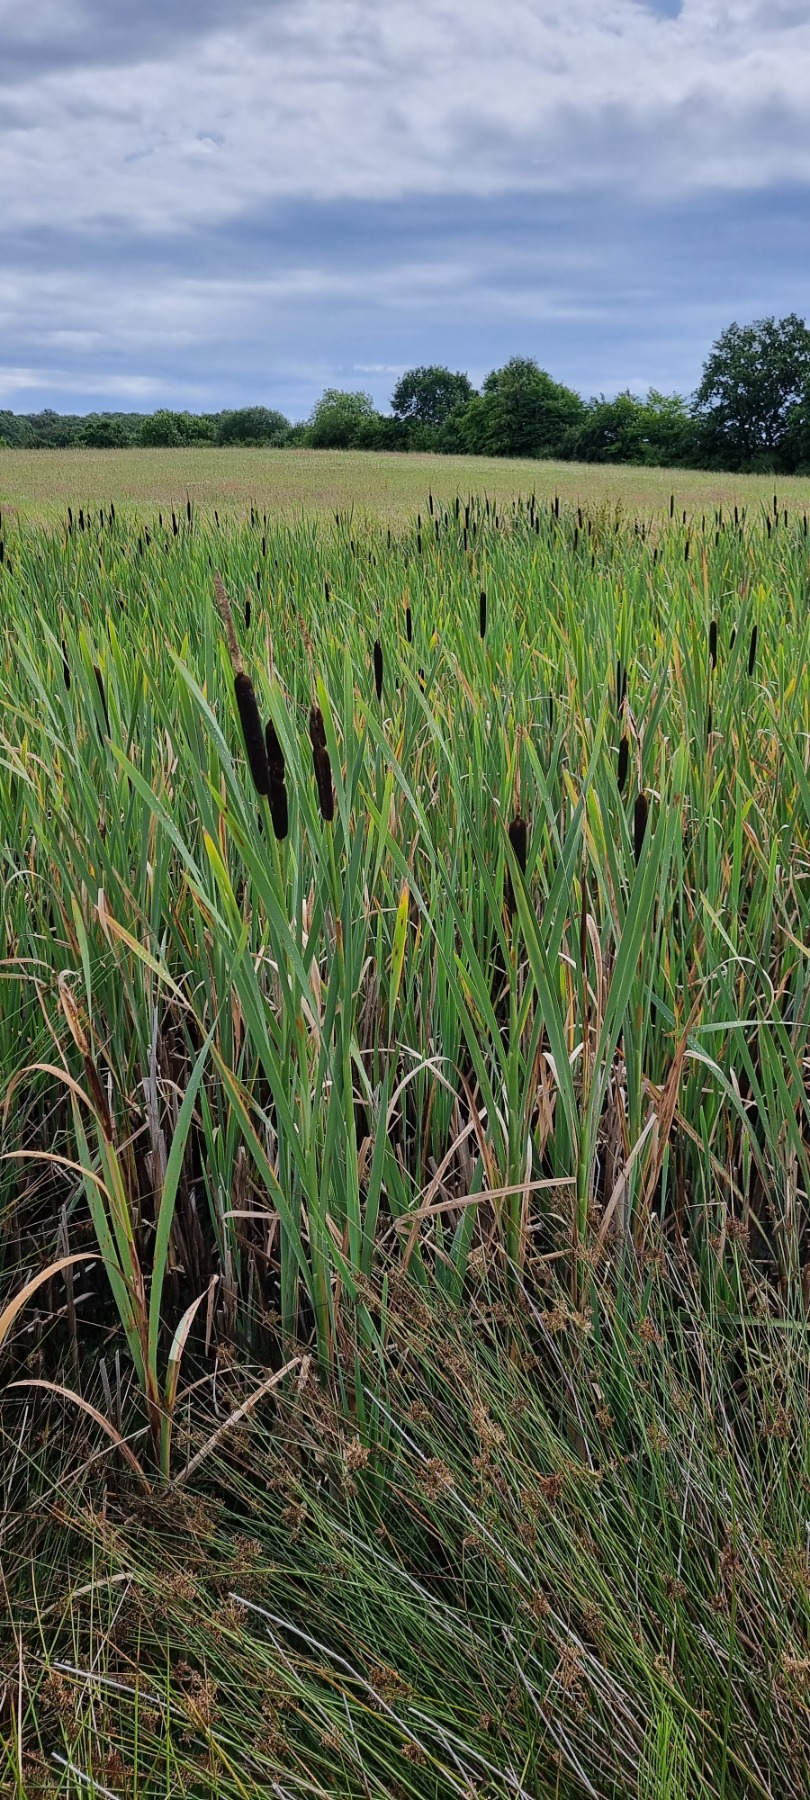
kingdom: Plantae
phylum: Tracheophyta
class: Liliopsida
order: Poales
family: Typhaceae
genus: Typha
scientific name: Typha latifolia
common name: Bredbladet dunhammer
